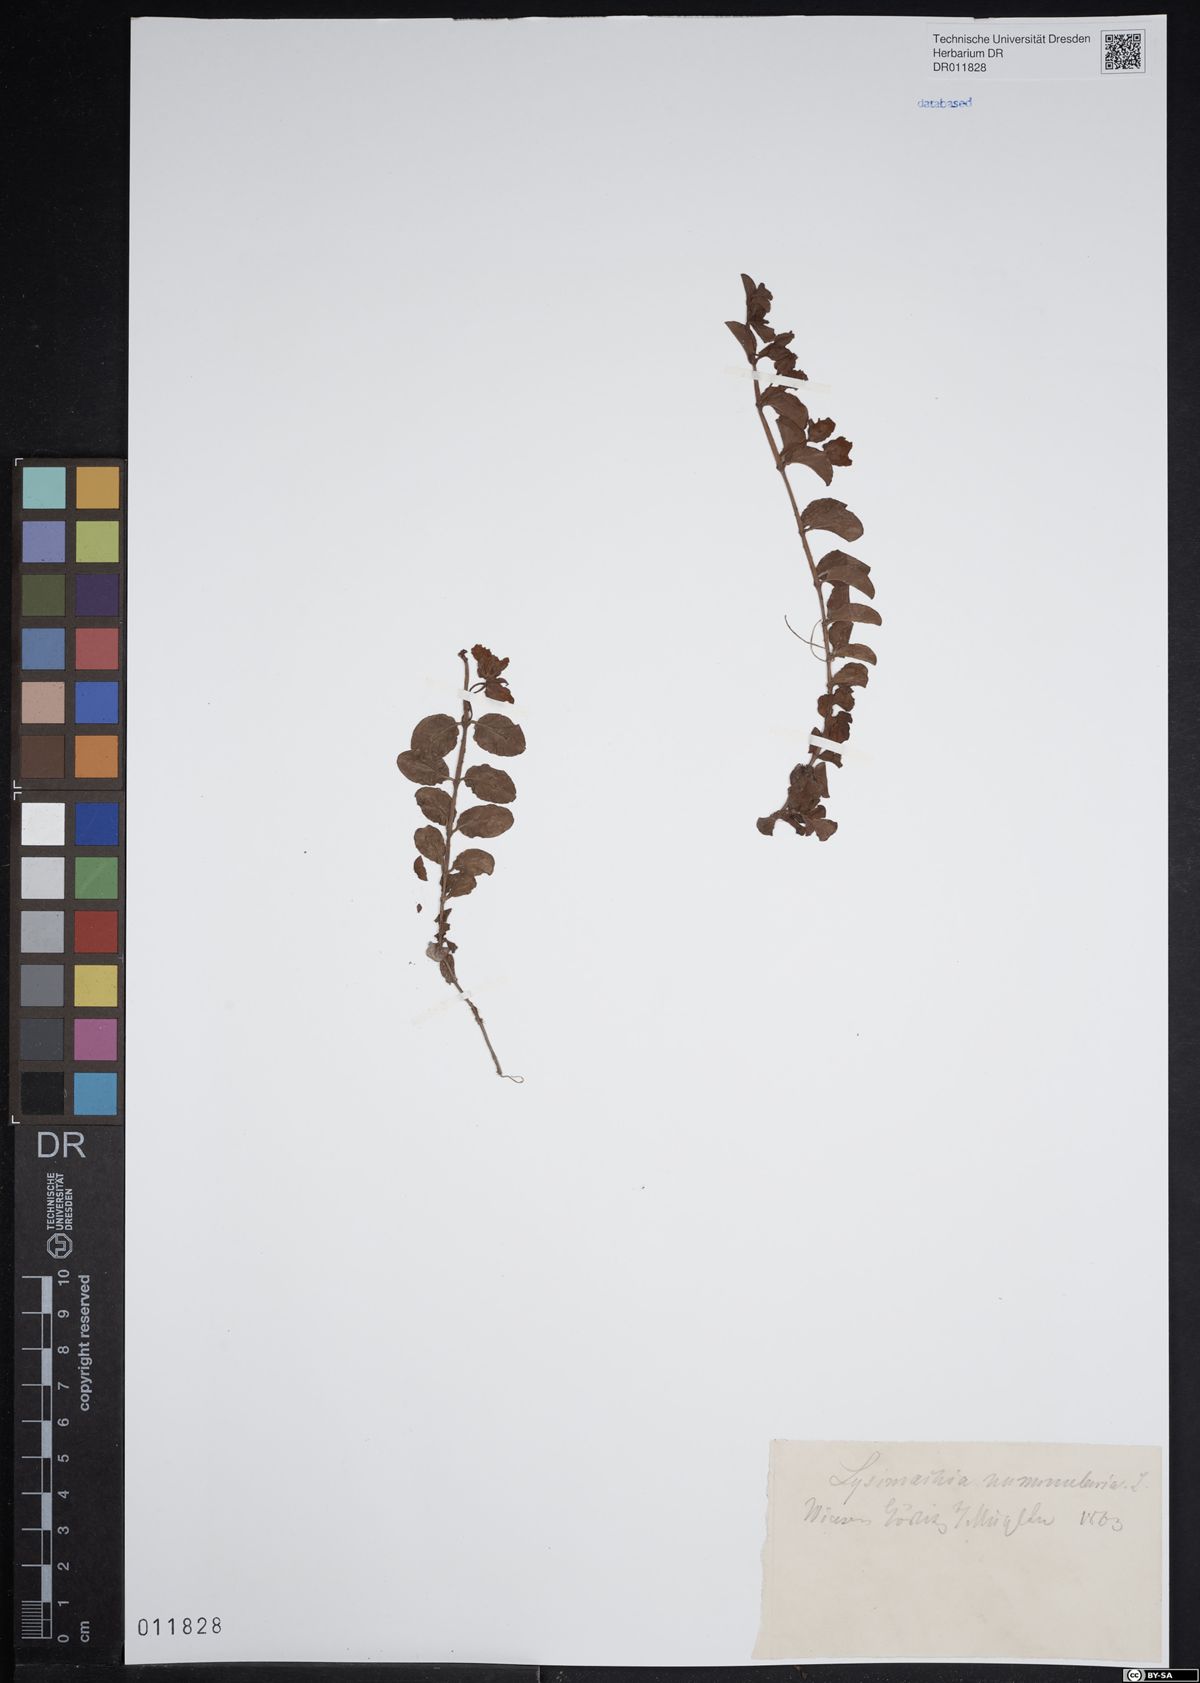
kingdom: Plantae
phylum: Tracheophyta
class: Magnoliopsida
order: Ericales
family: Primulaceae
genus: Lysimachia
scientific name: Lysimachia nummularia
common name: Moneywort
